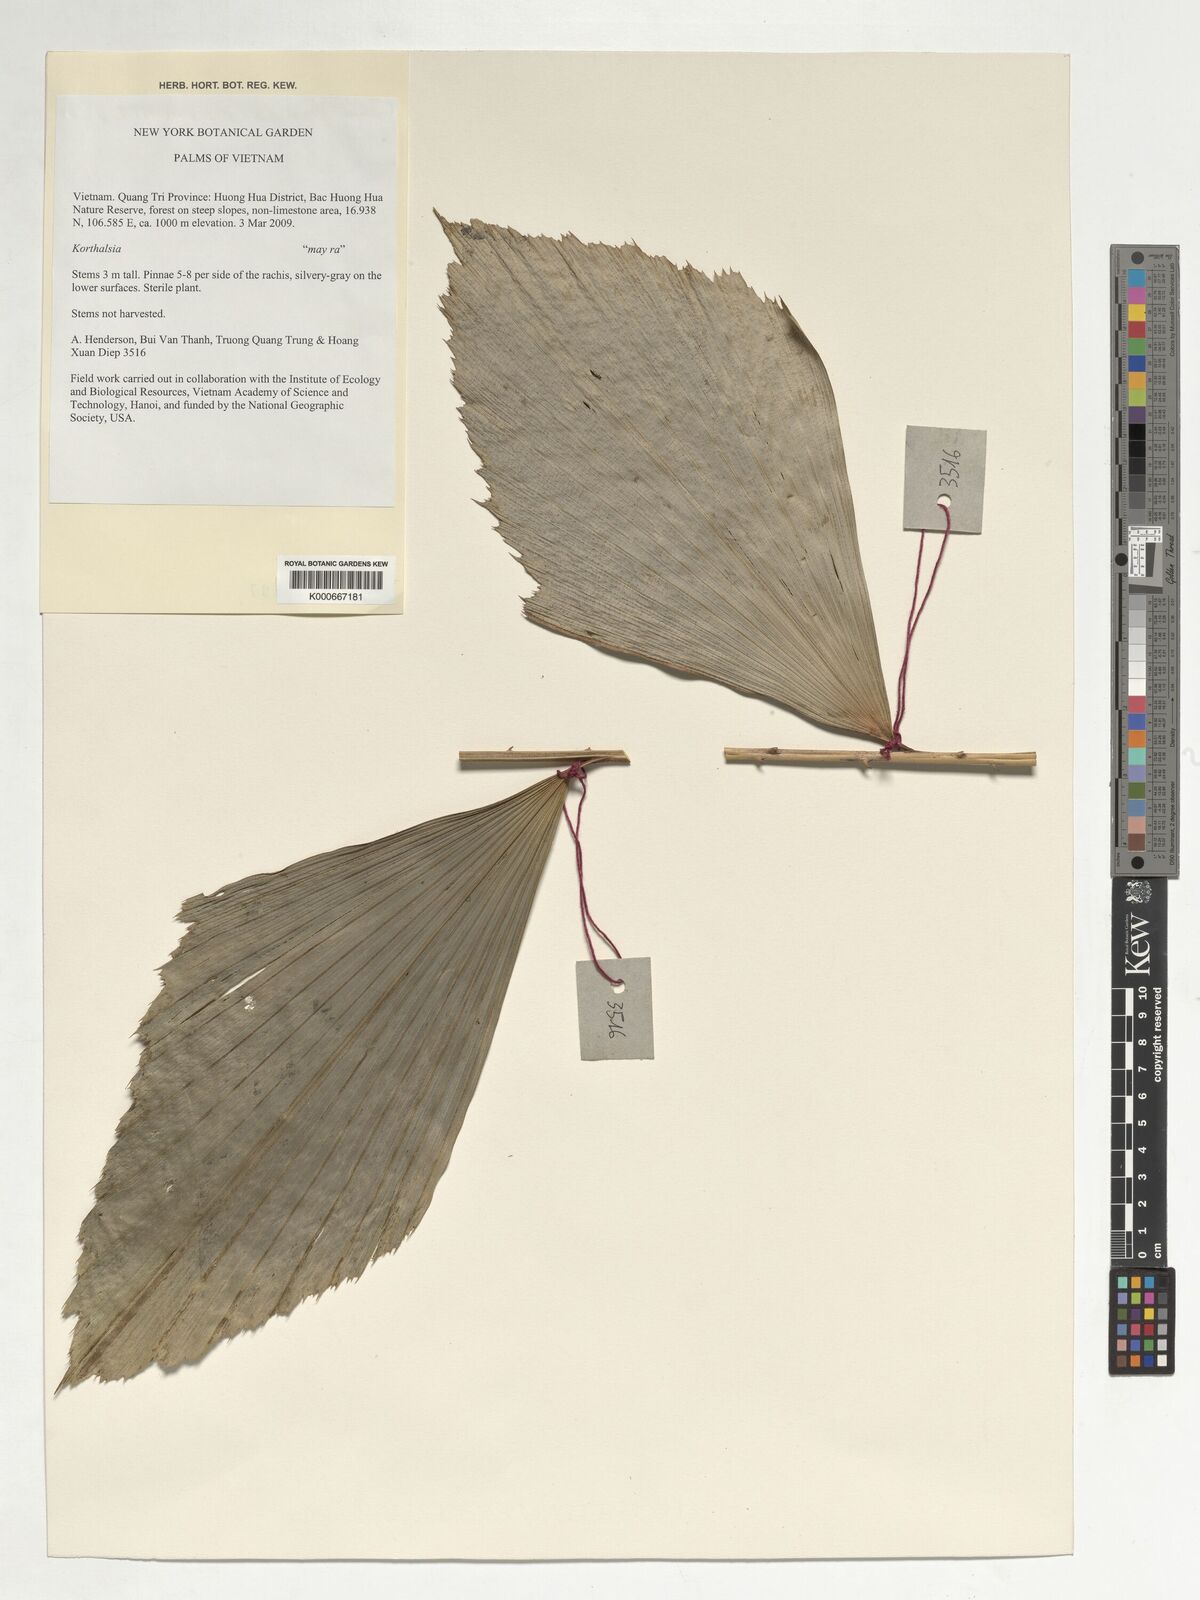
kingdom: Plantae
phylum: Tracheophyta
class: Liliopsida
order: Arecales
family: Arecaceae
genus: Korthalsia
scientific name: Korthalsia
